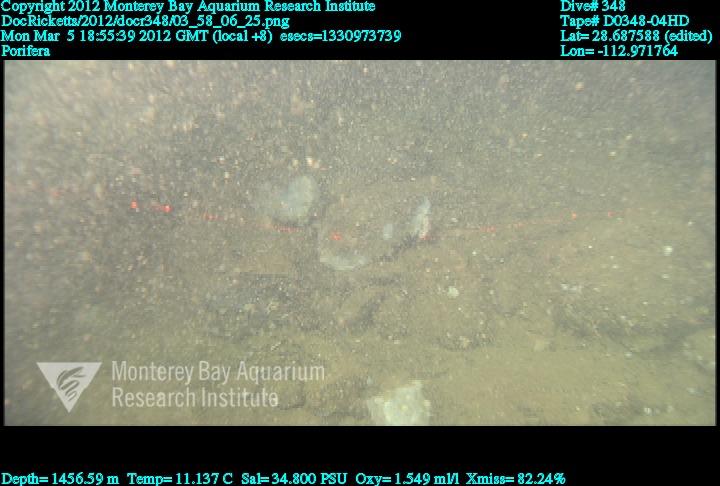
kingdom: Animalia
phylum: Porifera
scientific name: Porifera
